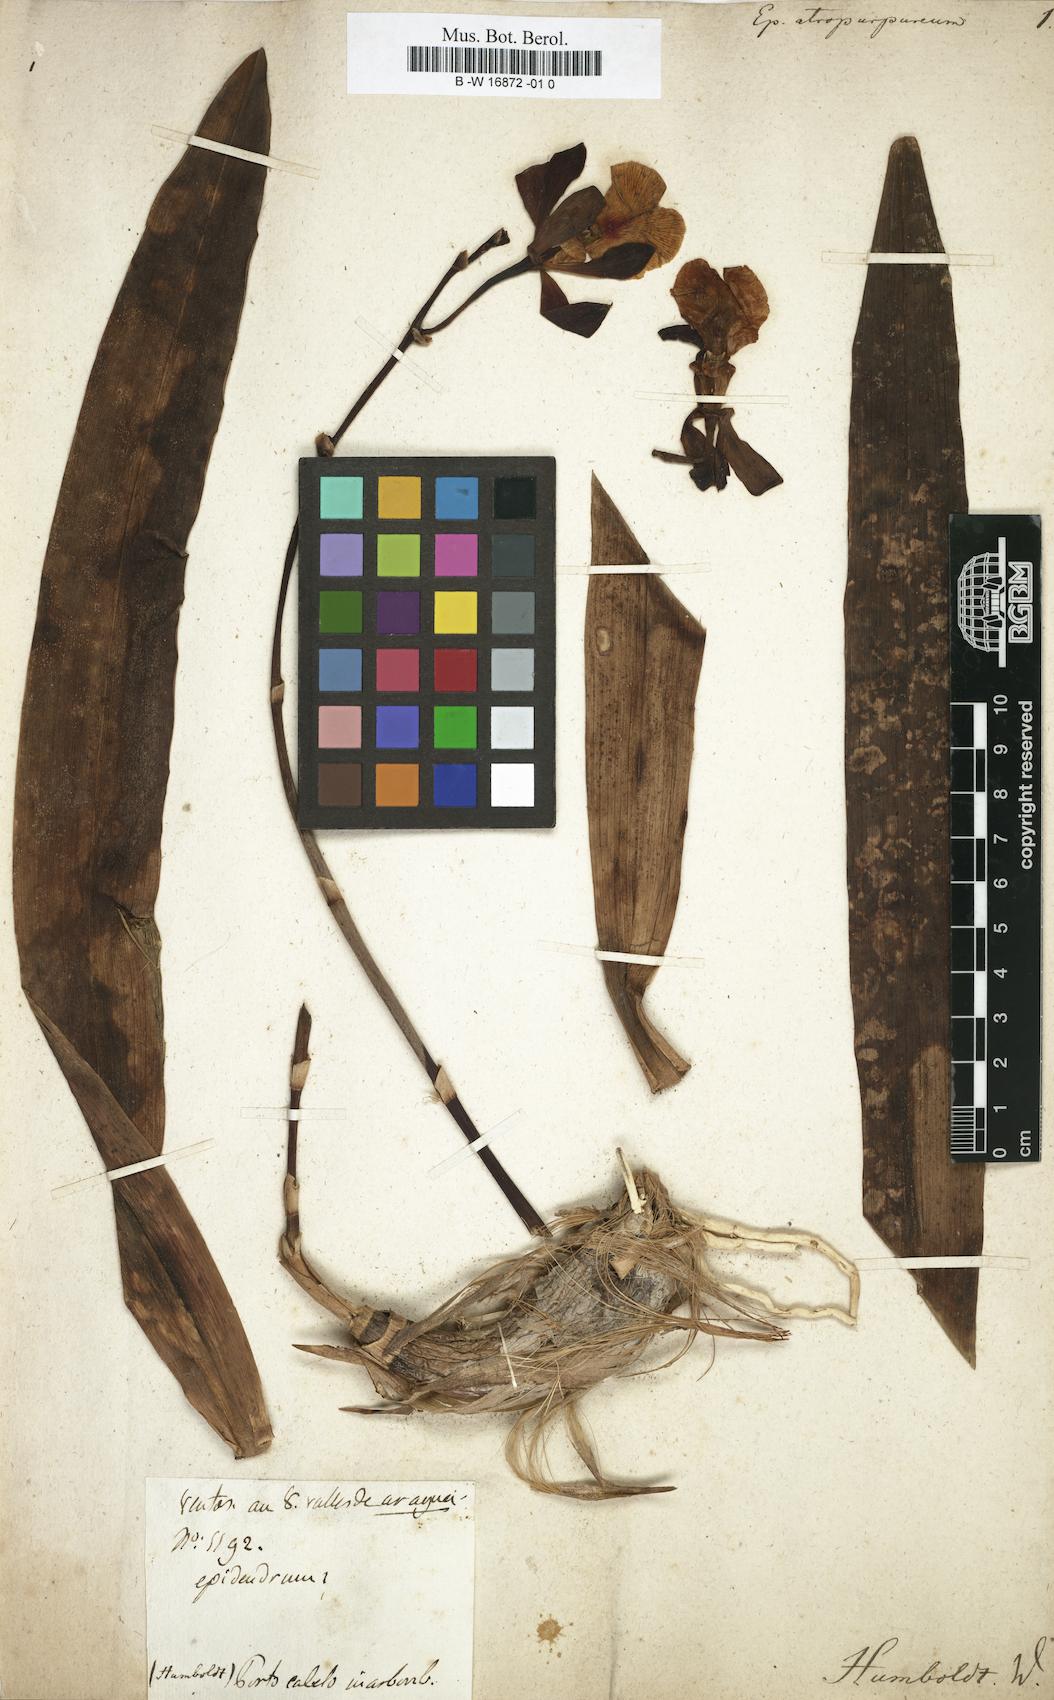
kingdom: Plantae
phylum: Tracheophyta
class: Liliopsida
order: Asparagales
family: Orchidaceae
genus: Epidendrum
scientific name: Epidendrum atropurpureum
